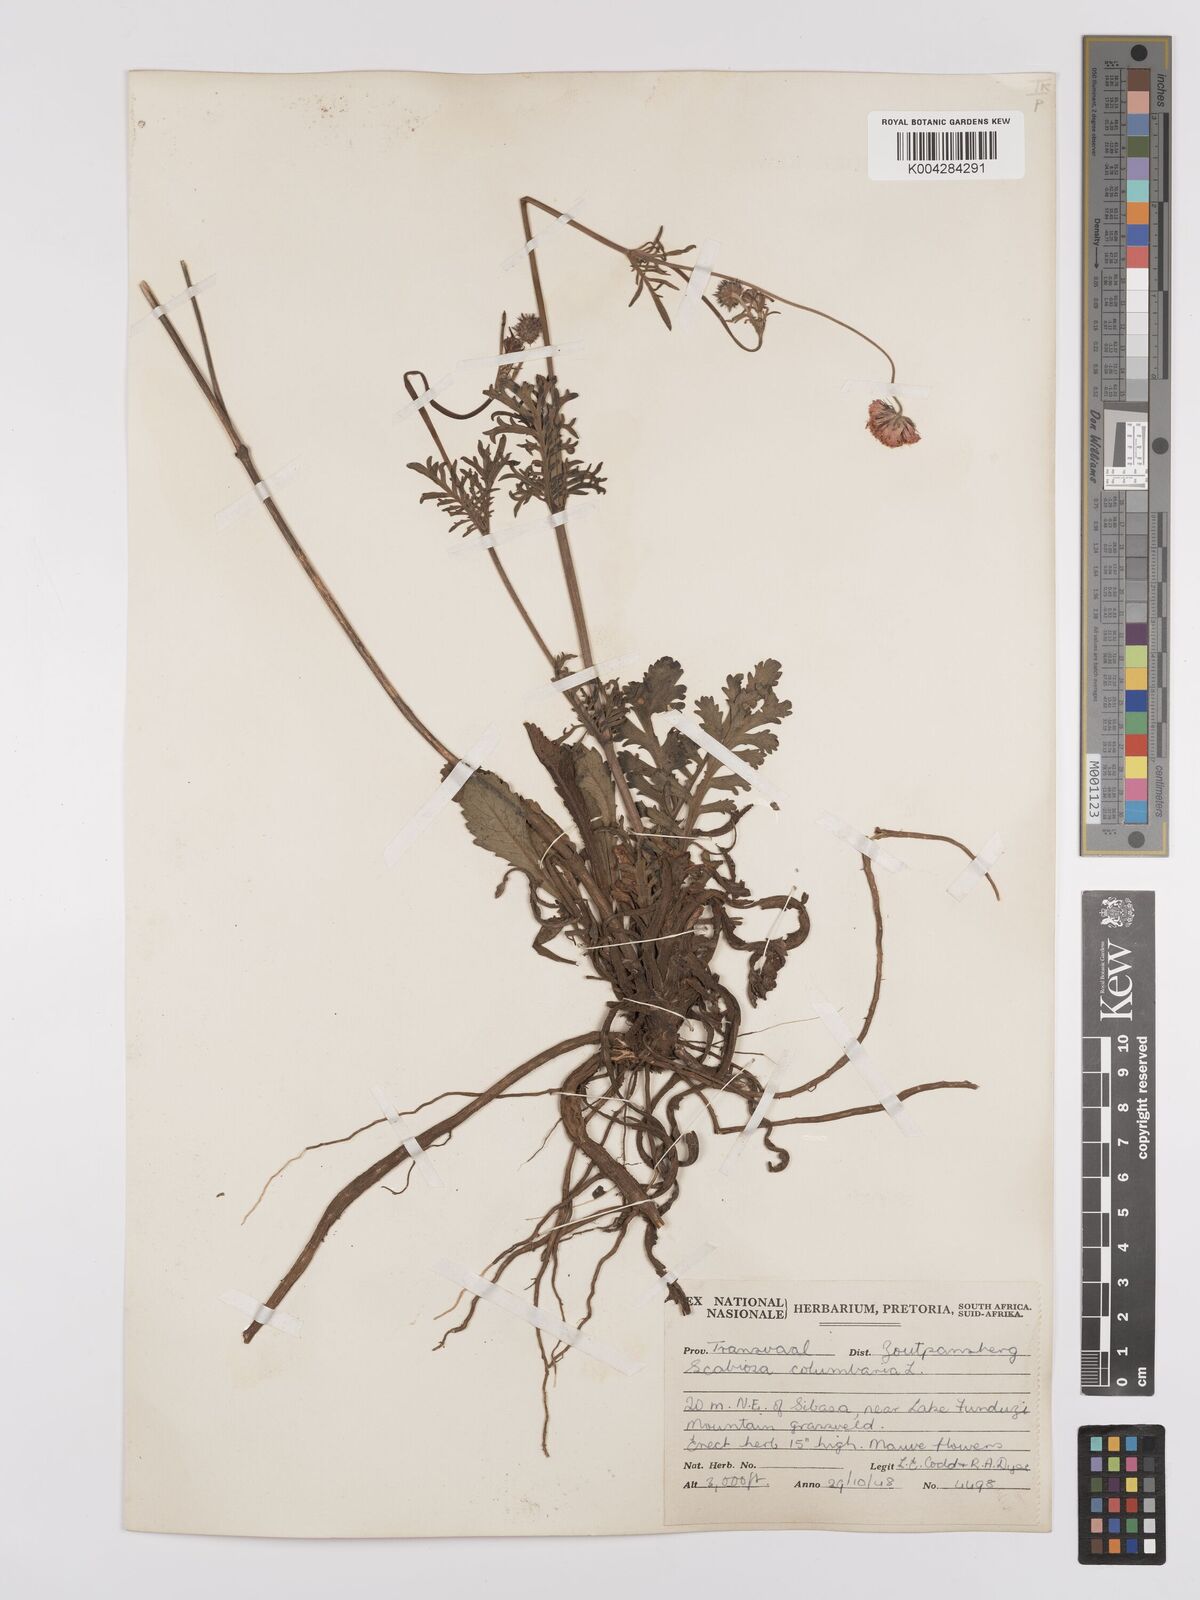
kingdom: Plantae
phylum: Tracheophyta
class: Magnoliopsida
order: Dipsacales
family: Caprifoliaceae
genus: Scabiosa
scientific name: Scabiosa columbaria
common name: Small scabious
